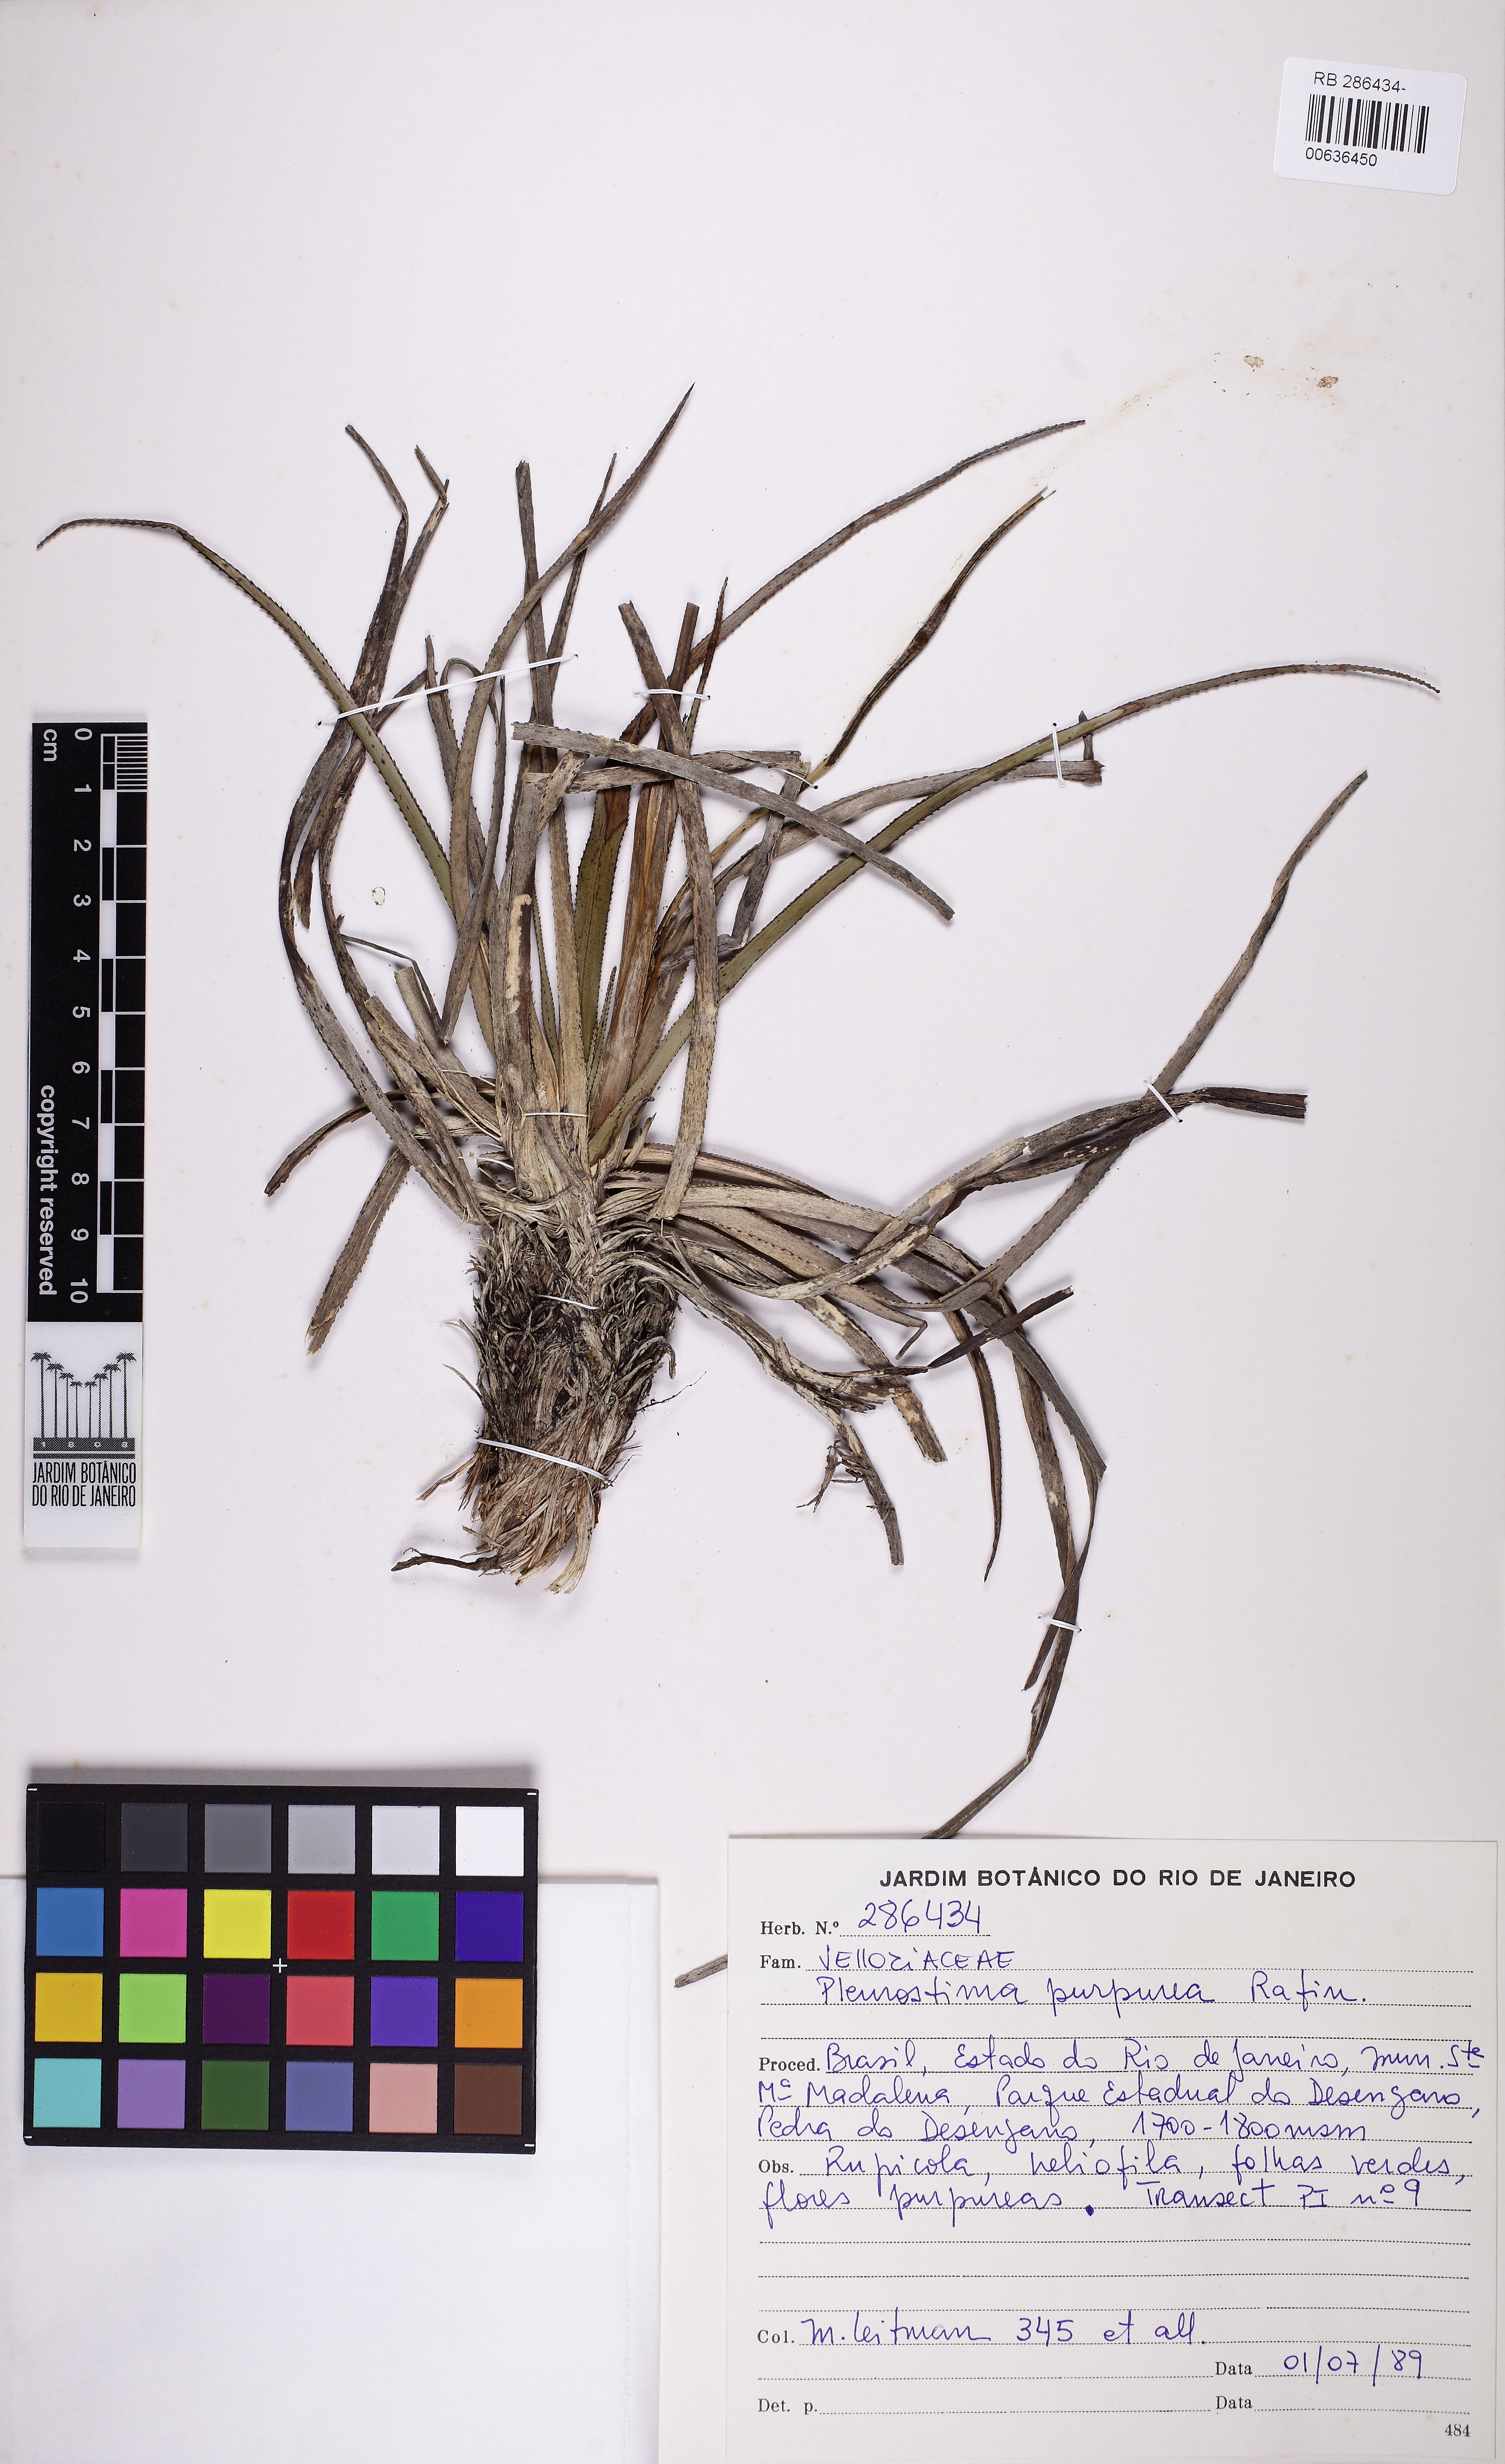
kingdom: Plantae
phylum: Tracheophyta
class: Liliopsida
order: Pandanales
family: Velloziaceae
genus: Barbacenia
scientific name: Barbacenia purpurea
